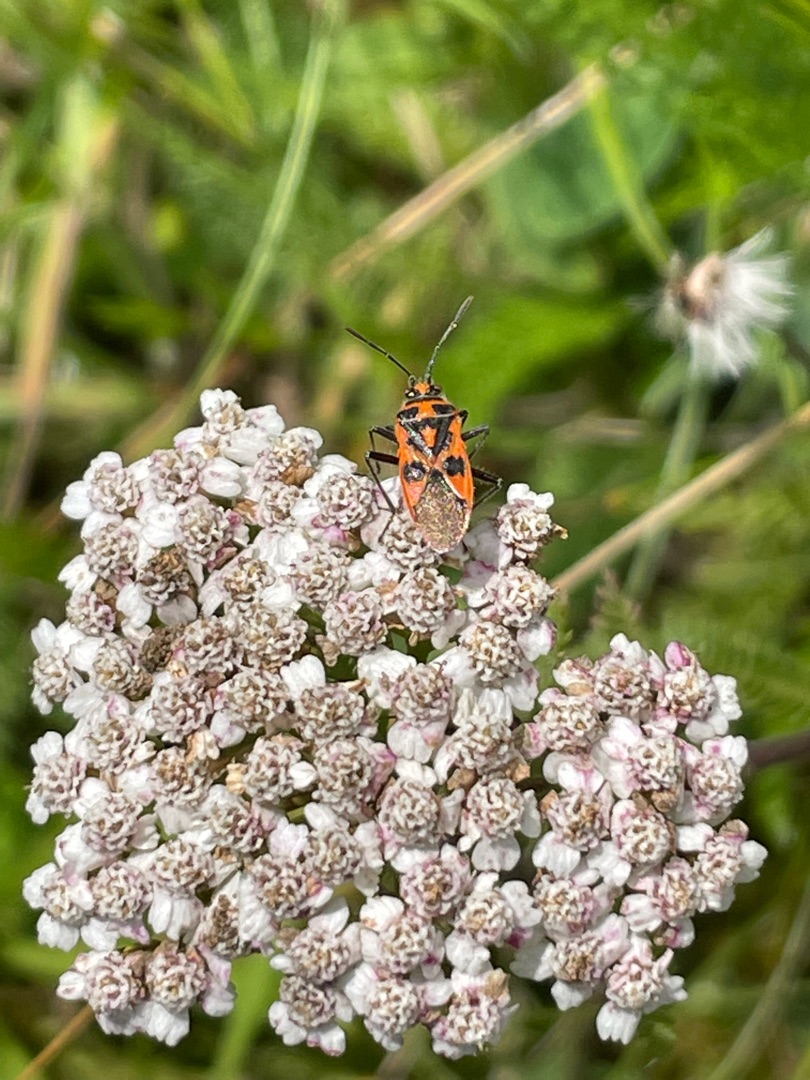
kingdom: Animalia
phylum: Arthropoda
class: Insecta
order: Hemiptera
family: Rhopalidae
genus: Corizus
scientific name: Corizus hyoscyami
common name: Rød kanttæge
